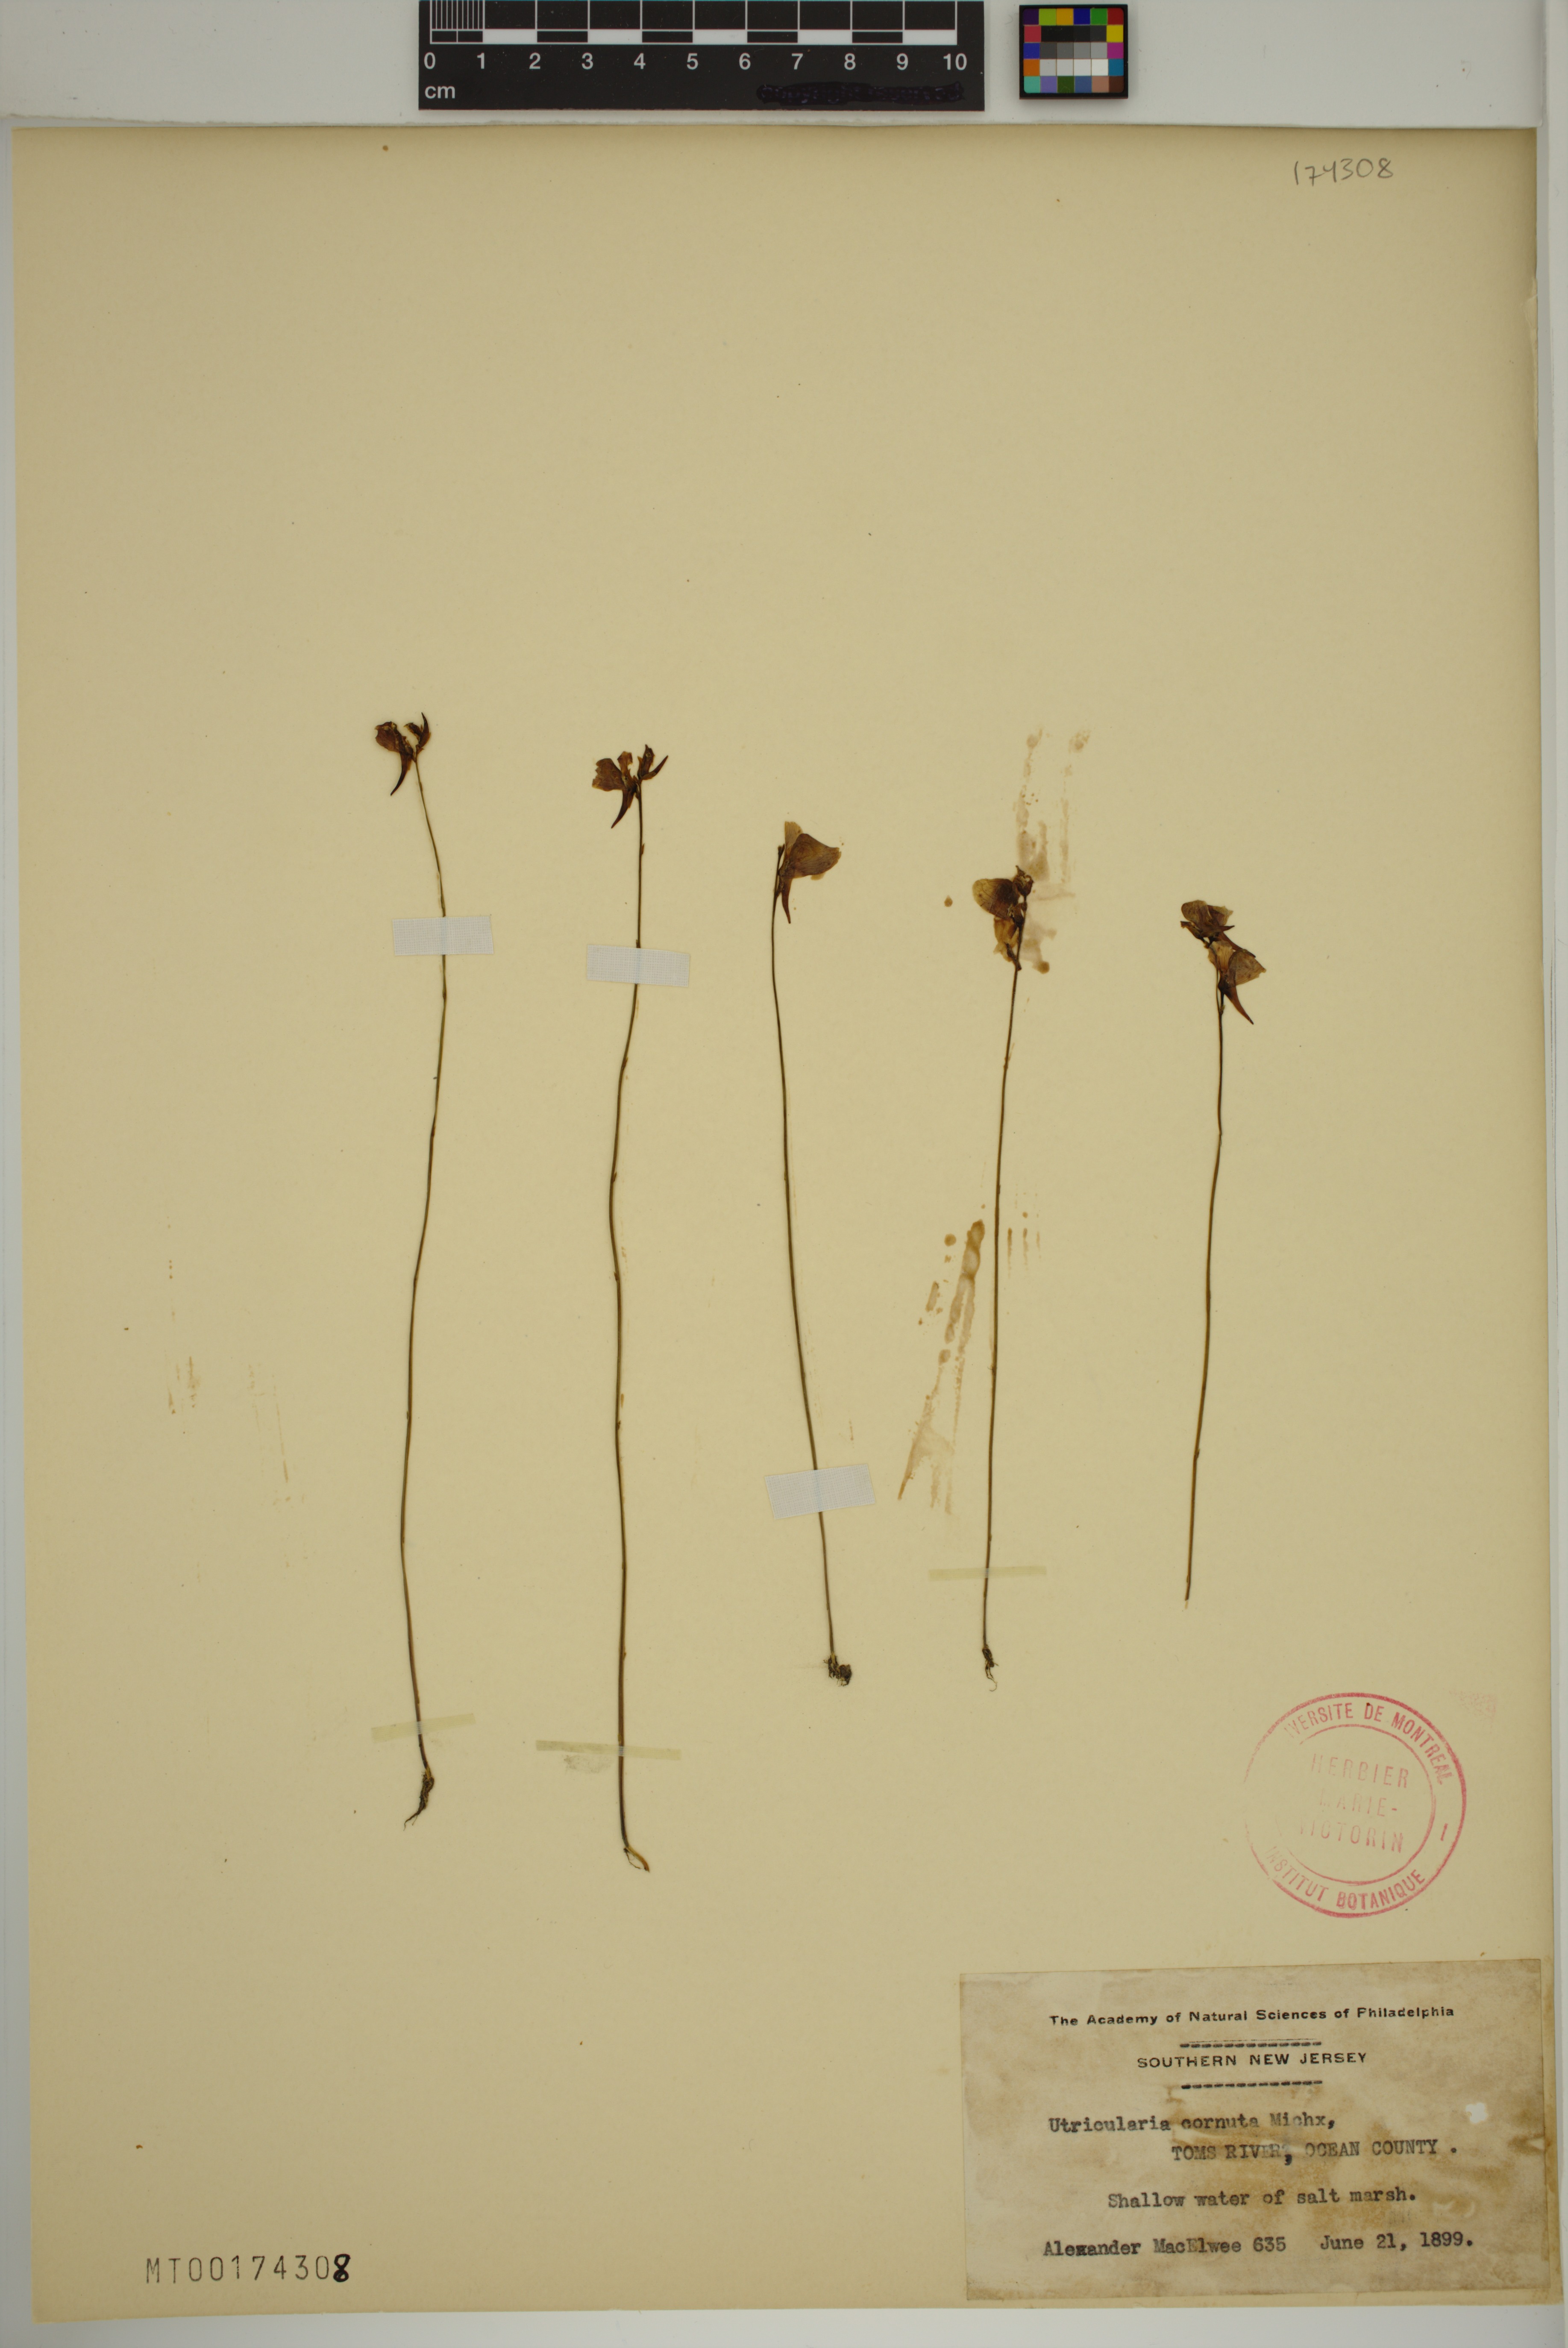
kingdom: Plantae
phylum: Tracheophyta
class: Magnoliopsida
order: Lamiales
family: Lentibulariaceae
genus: Utricularia
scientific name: Utricularia cornuta
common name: Horned bladderwort
